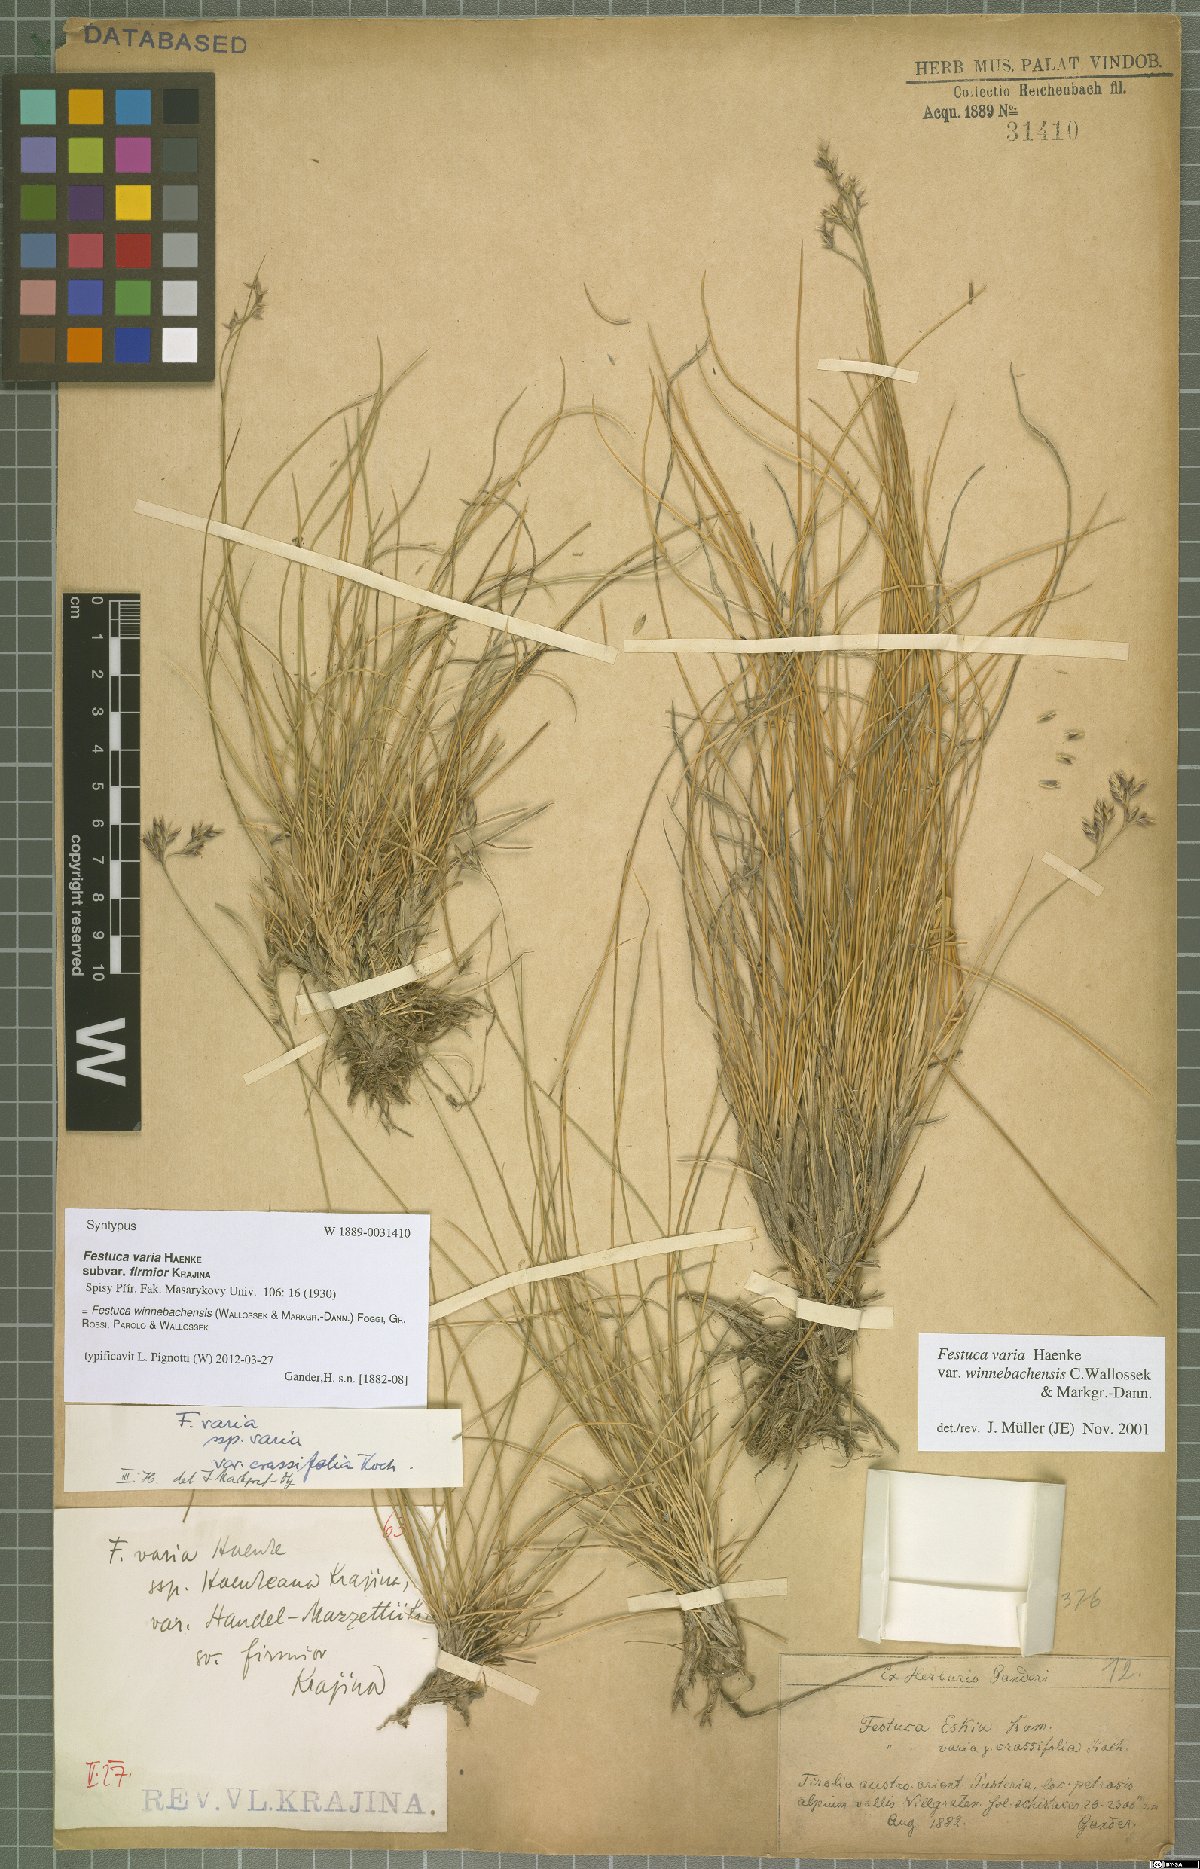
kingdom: Plantae
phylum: Tracheophyta
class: Liliopsida
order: Poales
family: Poaceae
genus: Festuca
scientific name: Festuca pseudovaria
